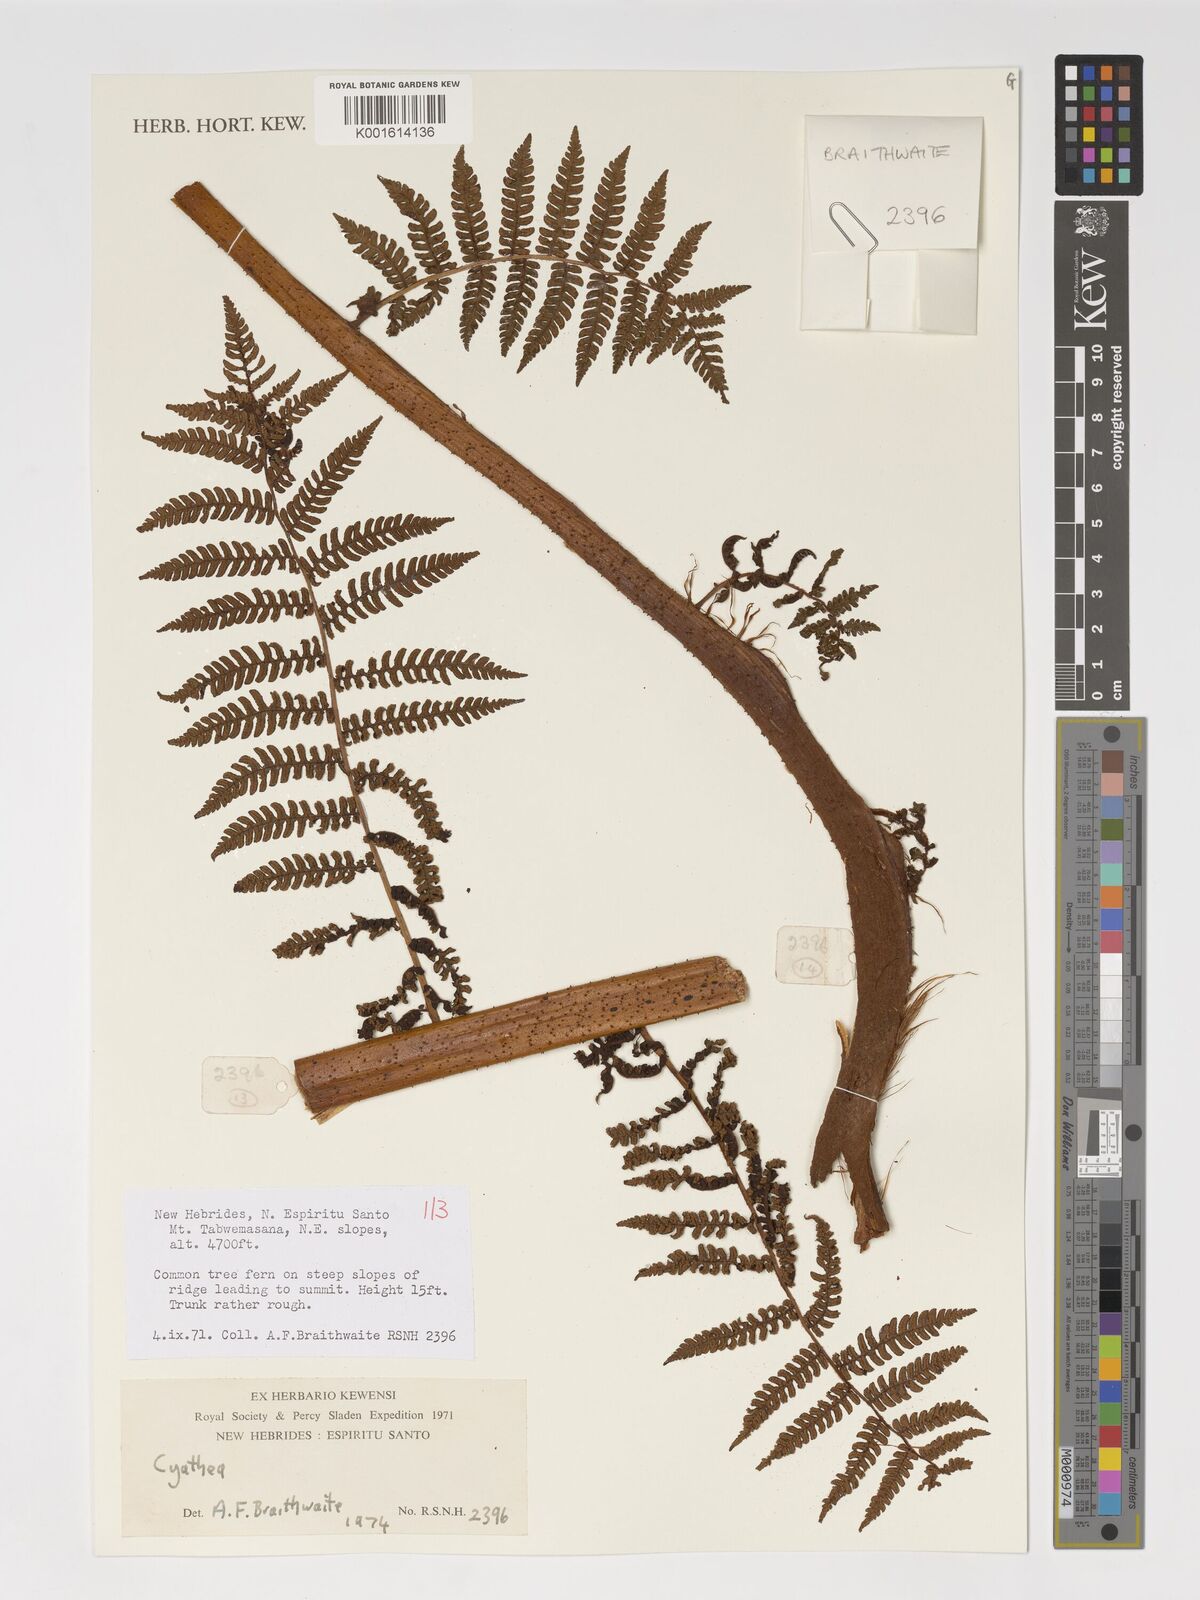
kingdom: Plantae
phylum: Tracheophyta
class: Polypodiopsida
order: Cyatheales
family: Cyatheaceae
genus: Cyathea
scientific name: Cyathea
